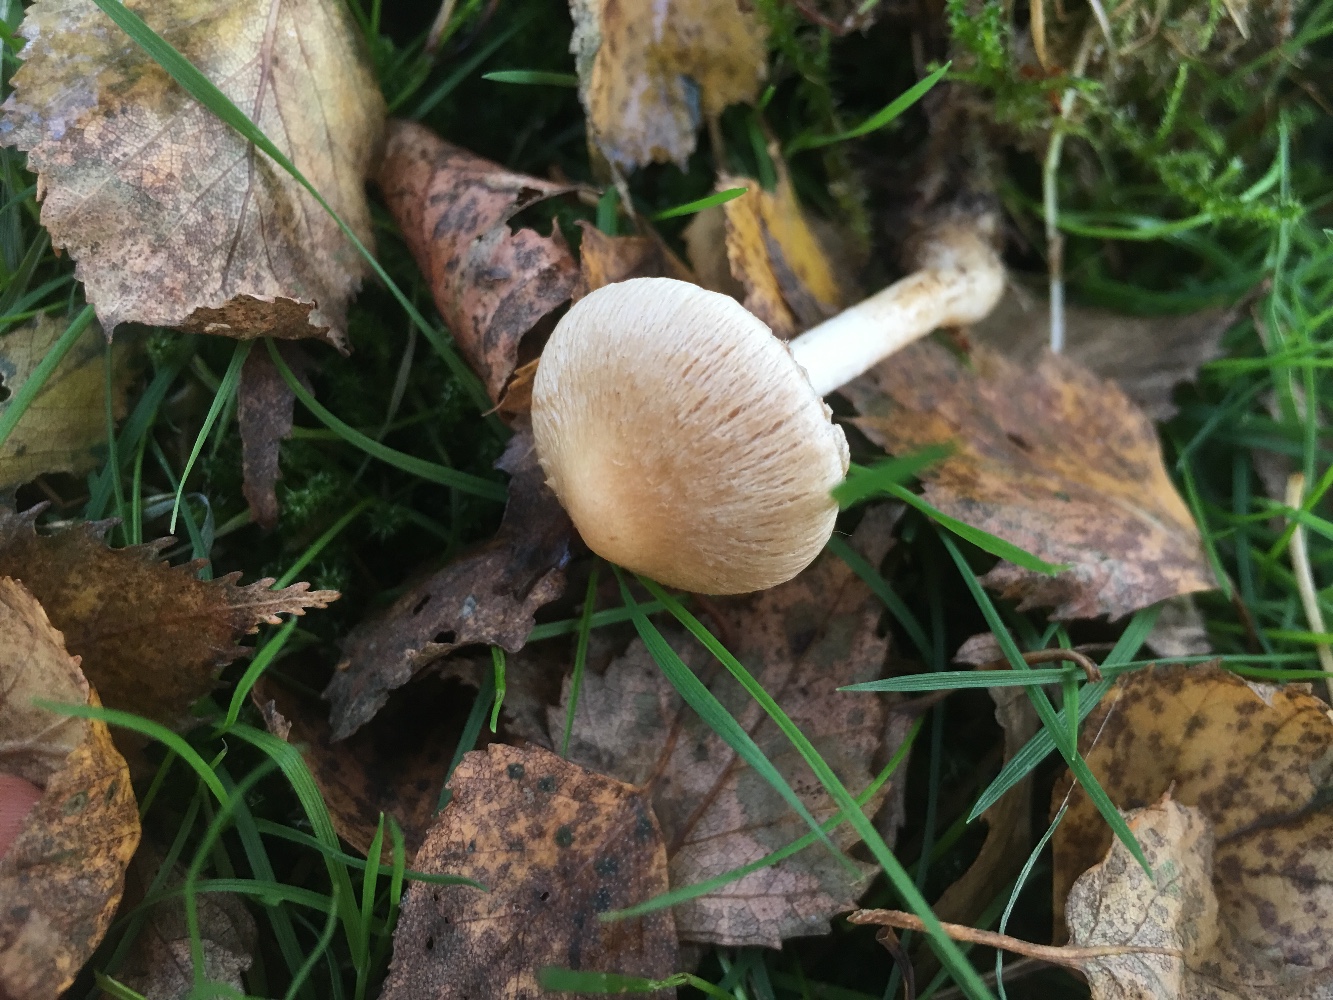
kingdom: Fungi
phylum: Basidiomycota
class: Agaricomycetes
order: Agaricales
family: Inocybaceae
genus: Inocybe
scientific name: Inocybe sindonia
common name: bleg trævlhat
